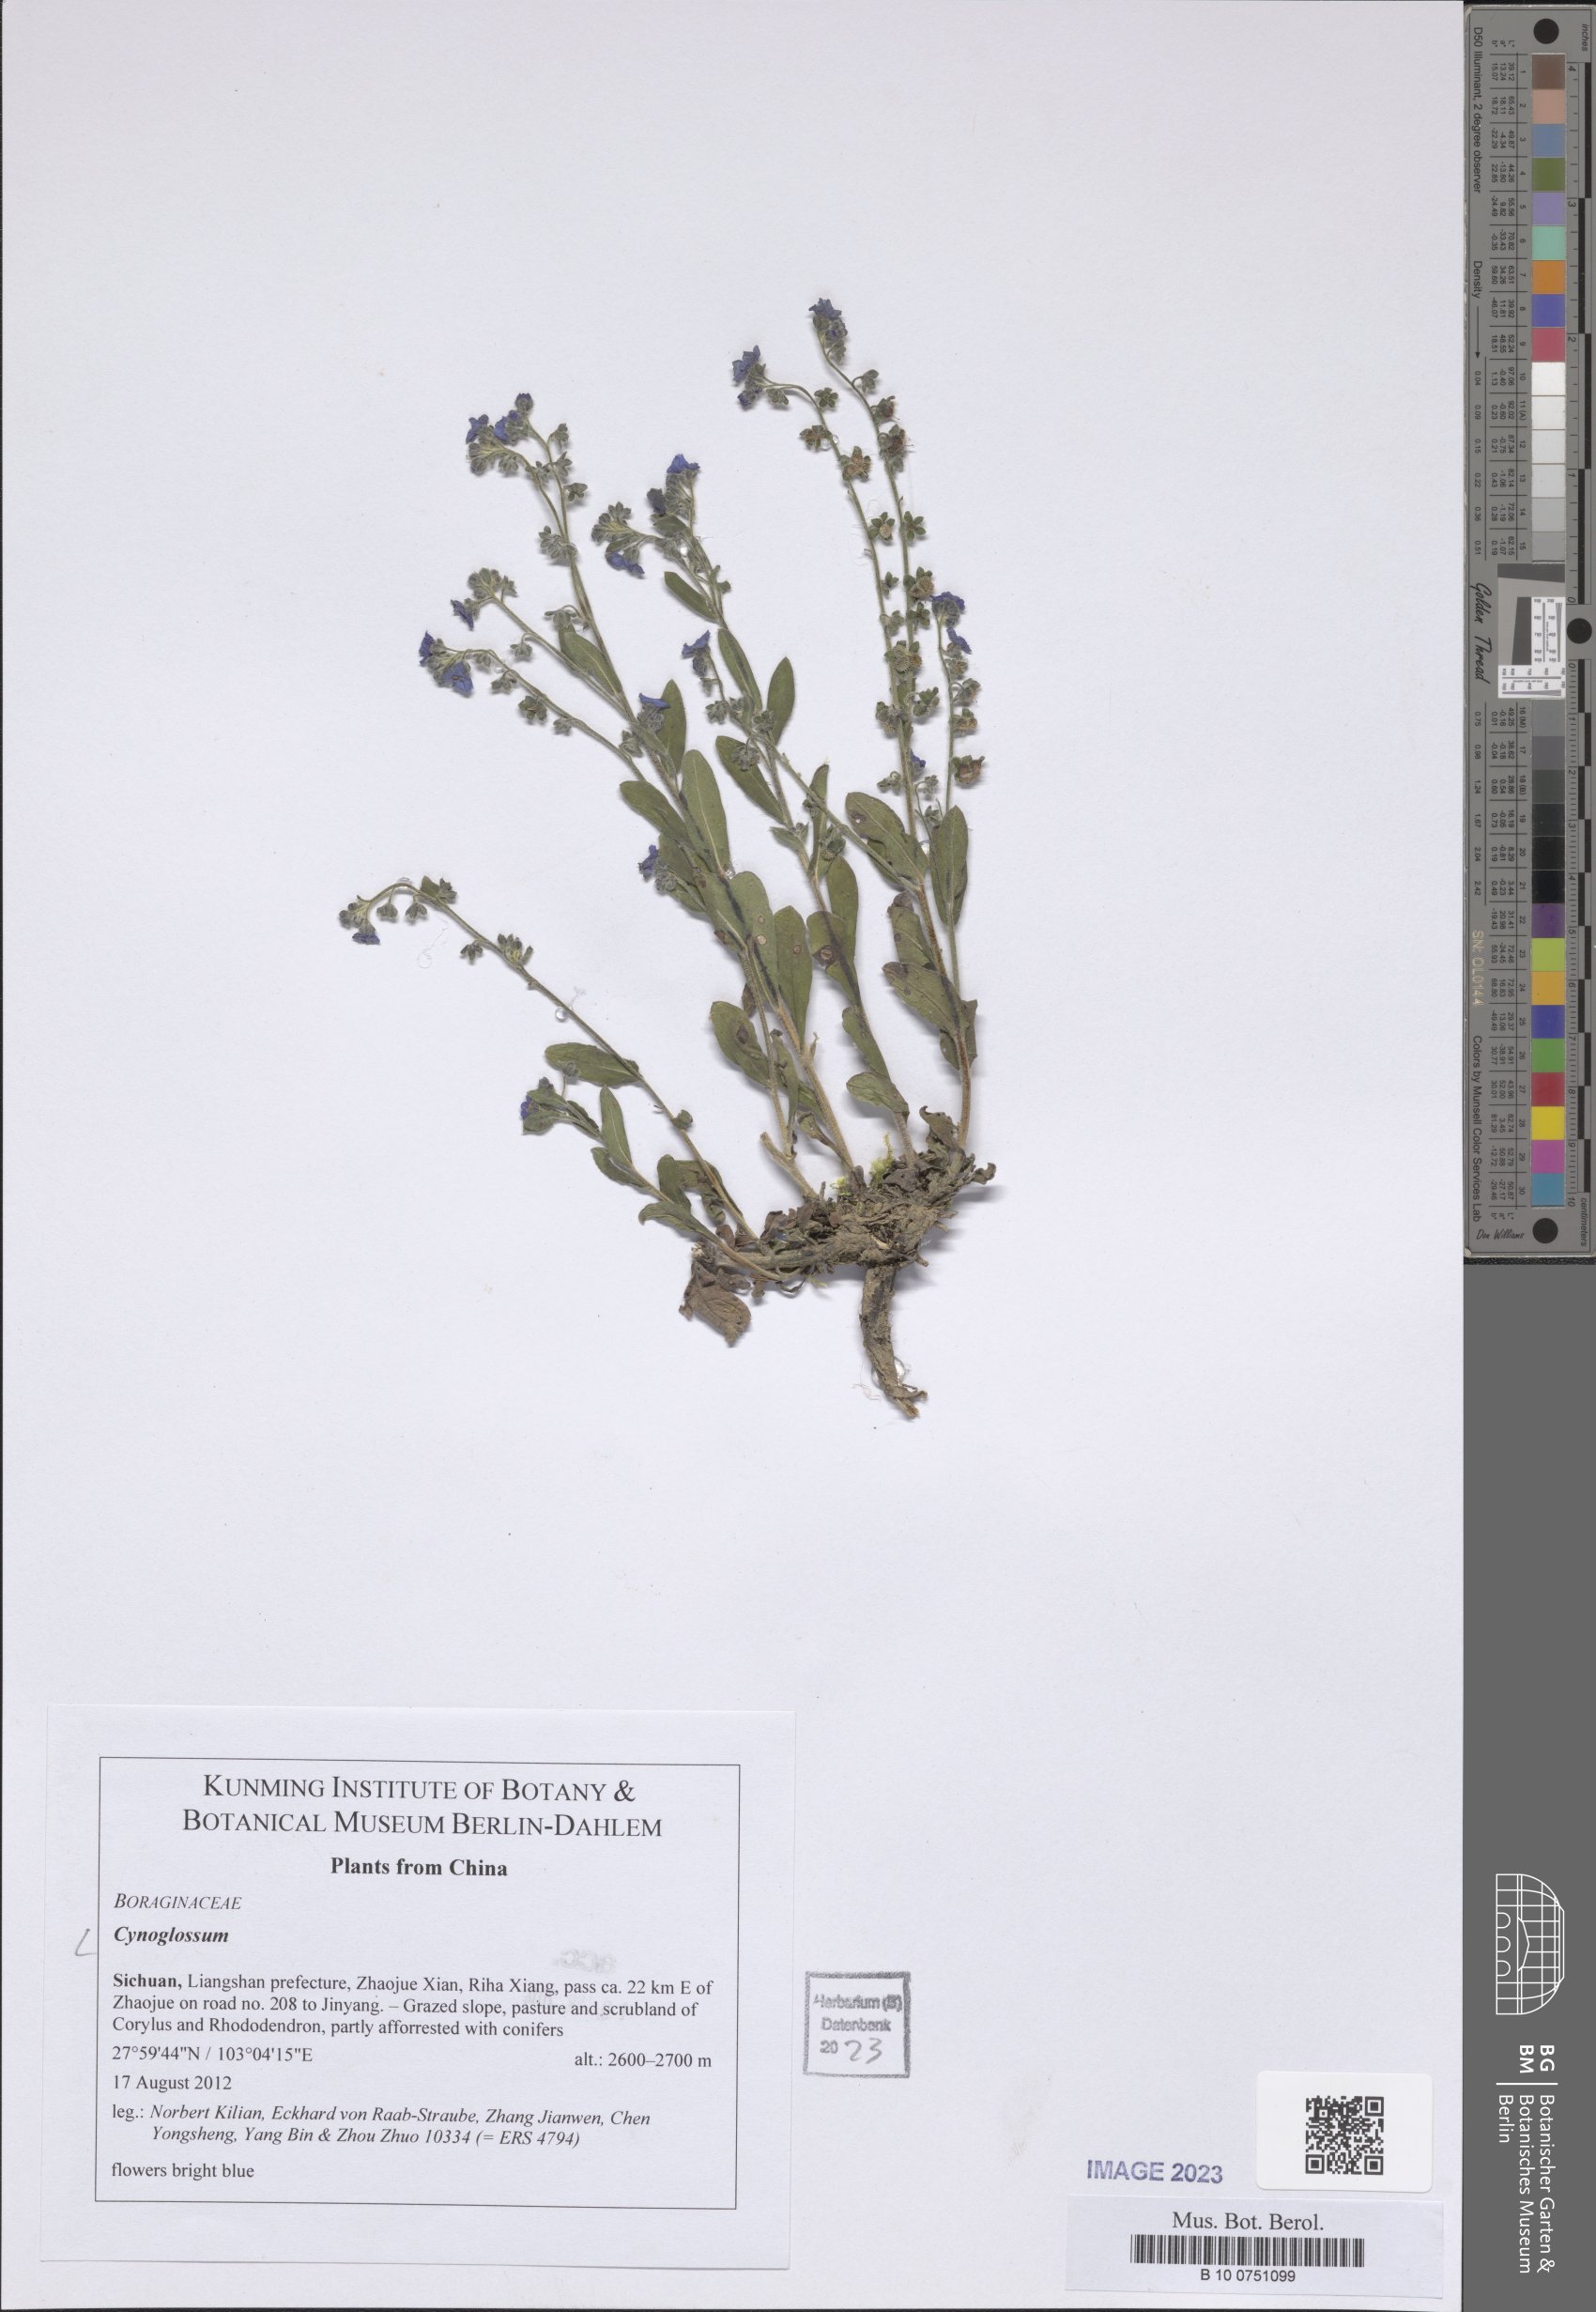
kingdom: Plantae
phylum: Tracheophyta
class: Magnoliopsida
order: Boraginales
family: Boraginaceae
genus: Cynoglossum
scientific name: Cynoglossum
